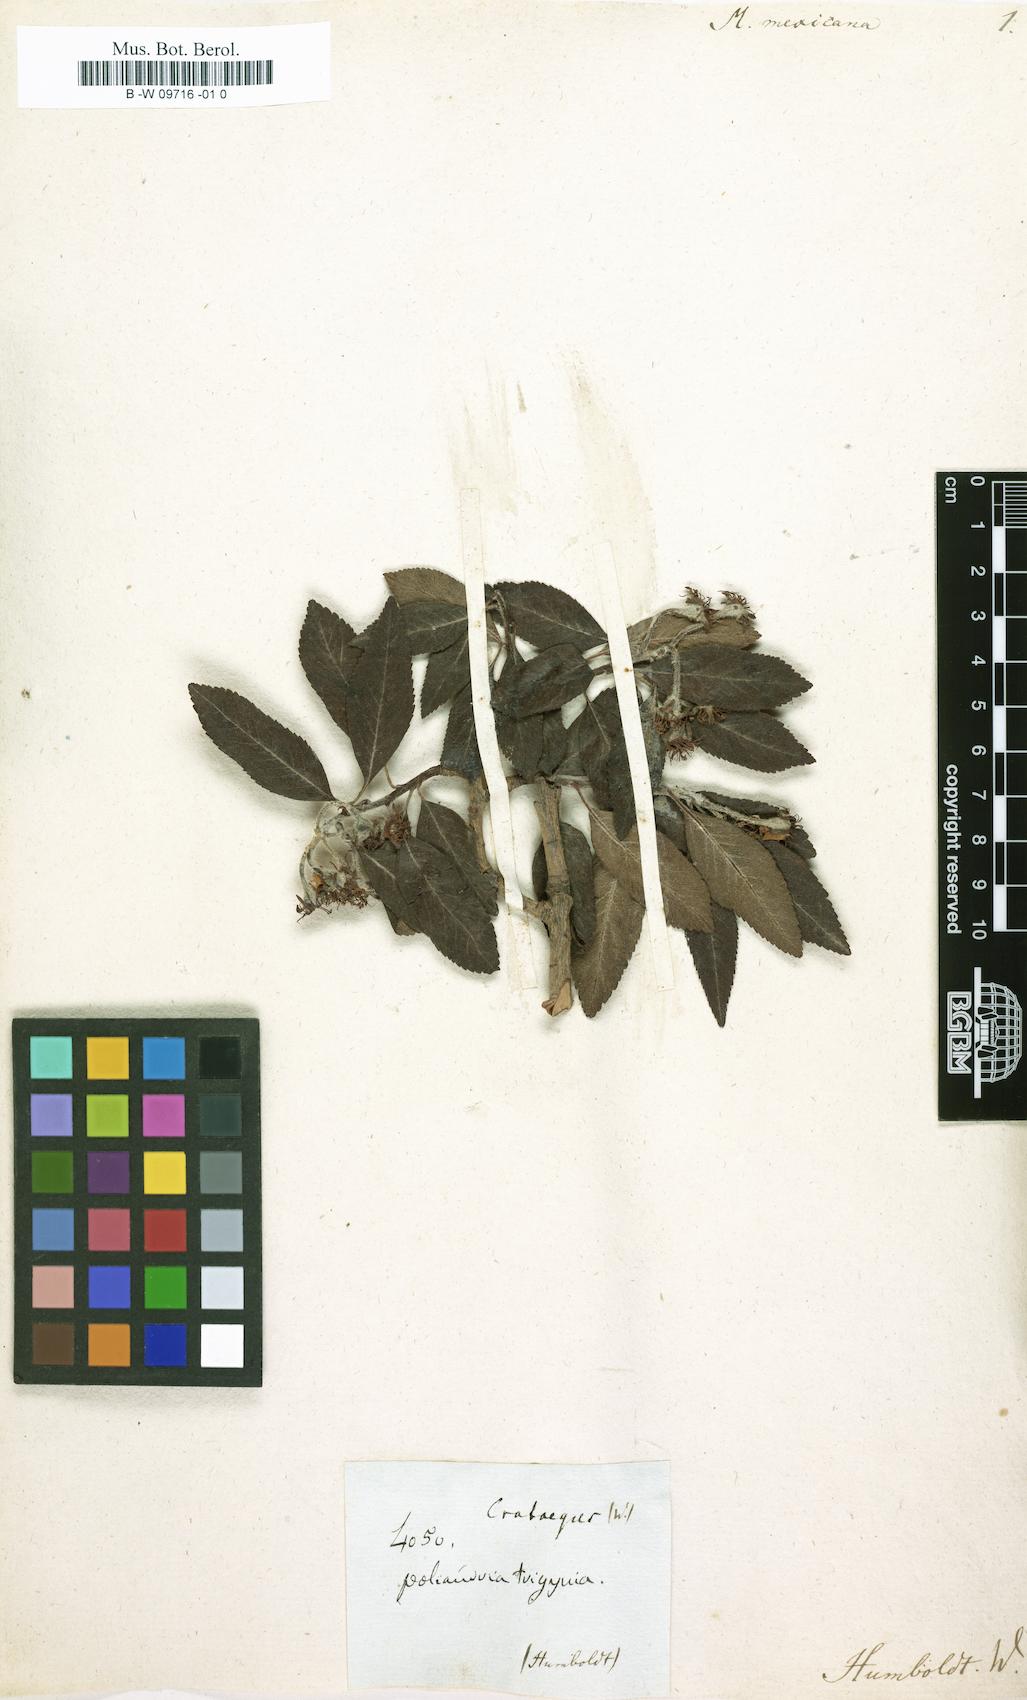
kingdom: Plantae
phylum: Tracheophyta
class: Magnoliopsida
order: Rosales
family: Rosaceae
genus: Crataegus
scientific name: Crataegus
